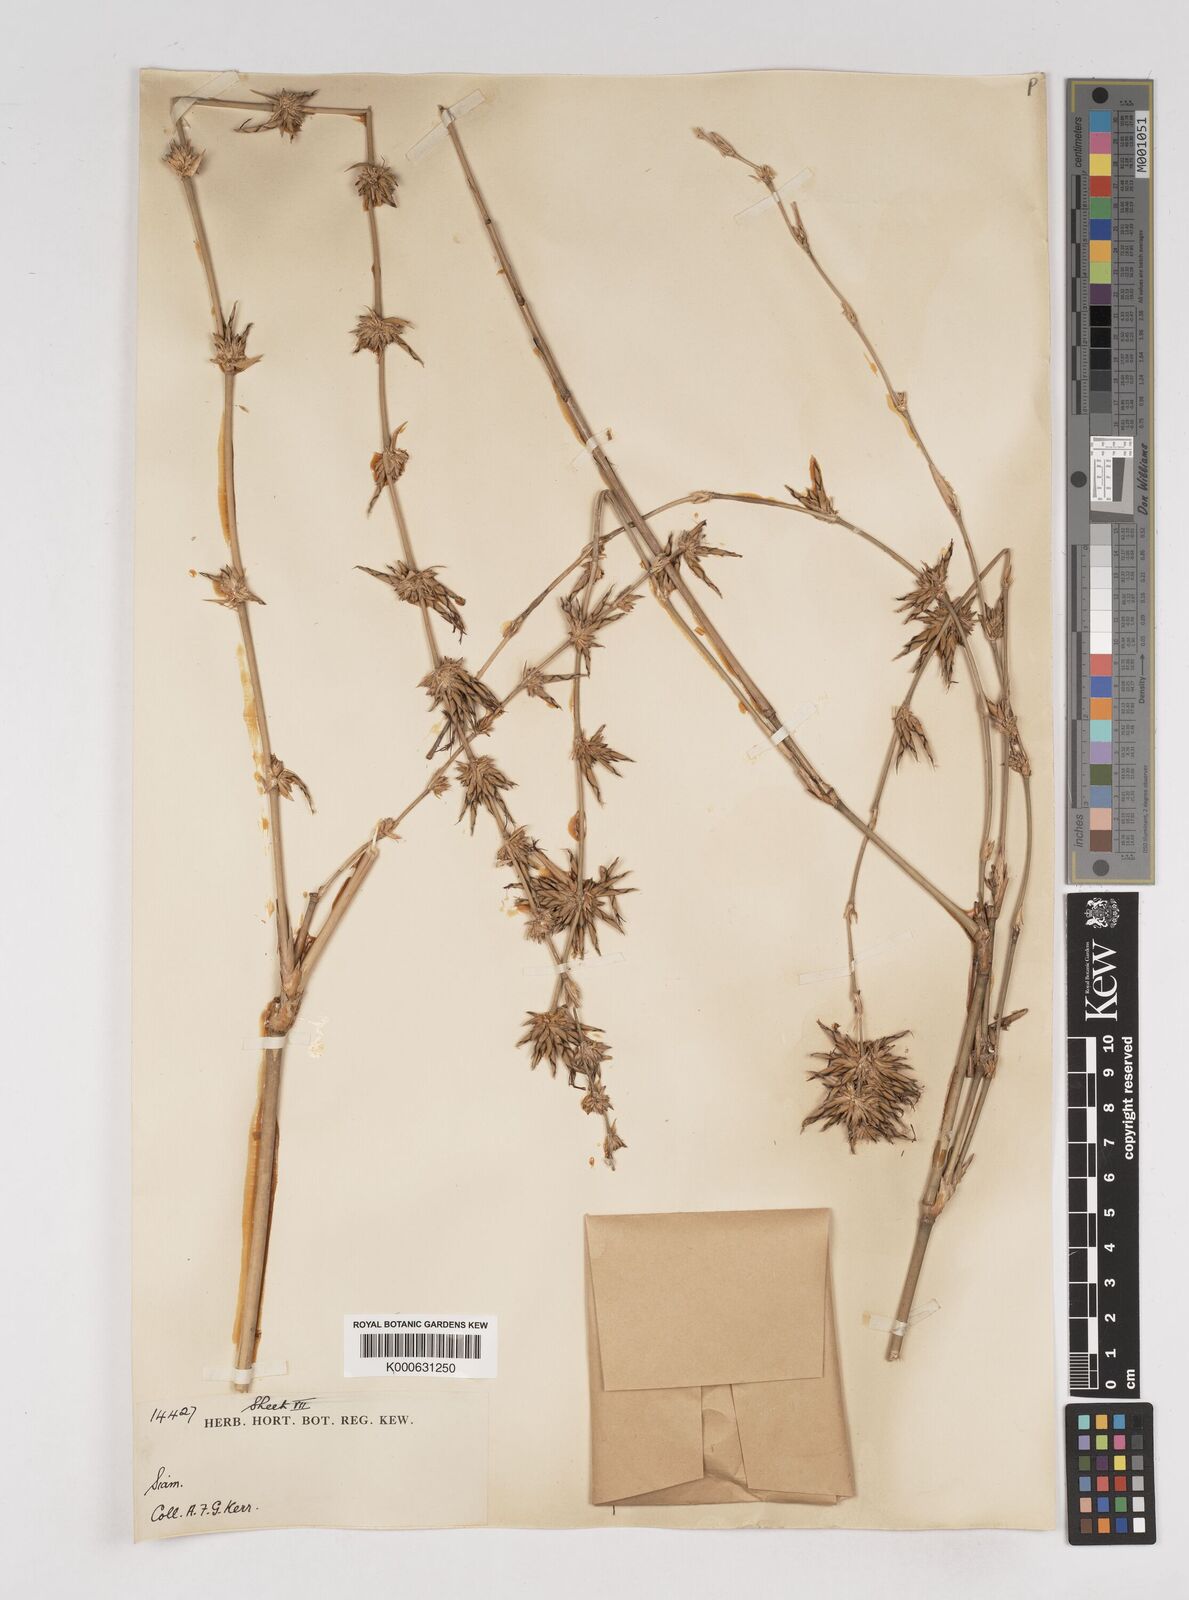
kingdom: Plantae
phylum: Tracheophyta
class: Liliopsida
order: Poales
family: Poaceae
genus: Gigantochloa
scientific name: Gigantochloa
